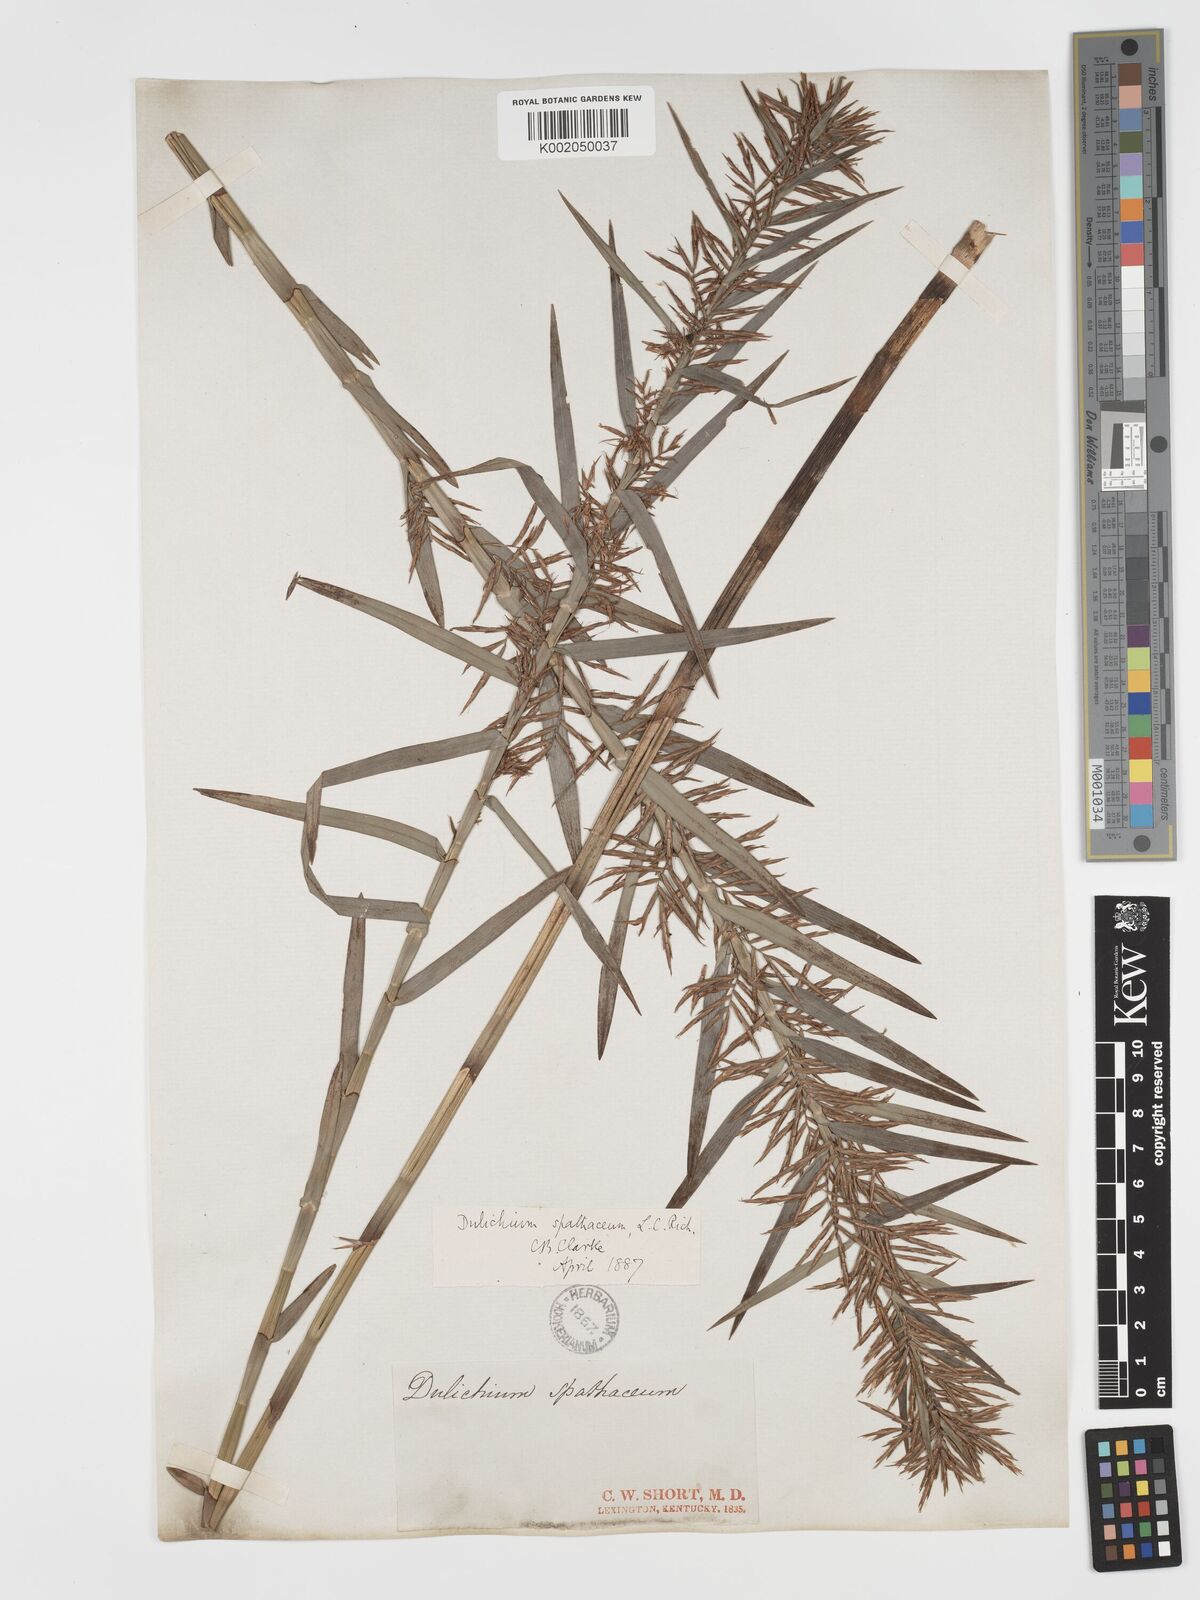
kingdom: Plantae
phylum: Tracheophyta
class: Liliopsida
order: Poales
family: Cyperaceae
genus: Dulichium
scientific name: Dulichium arundinaceum
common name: Three-way sedge
